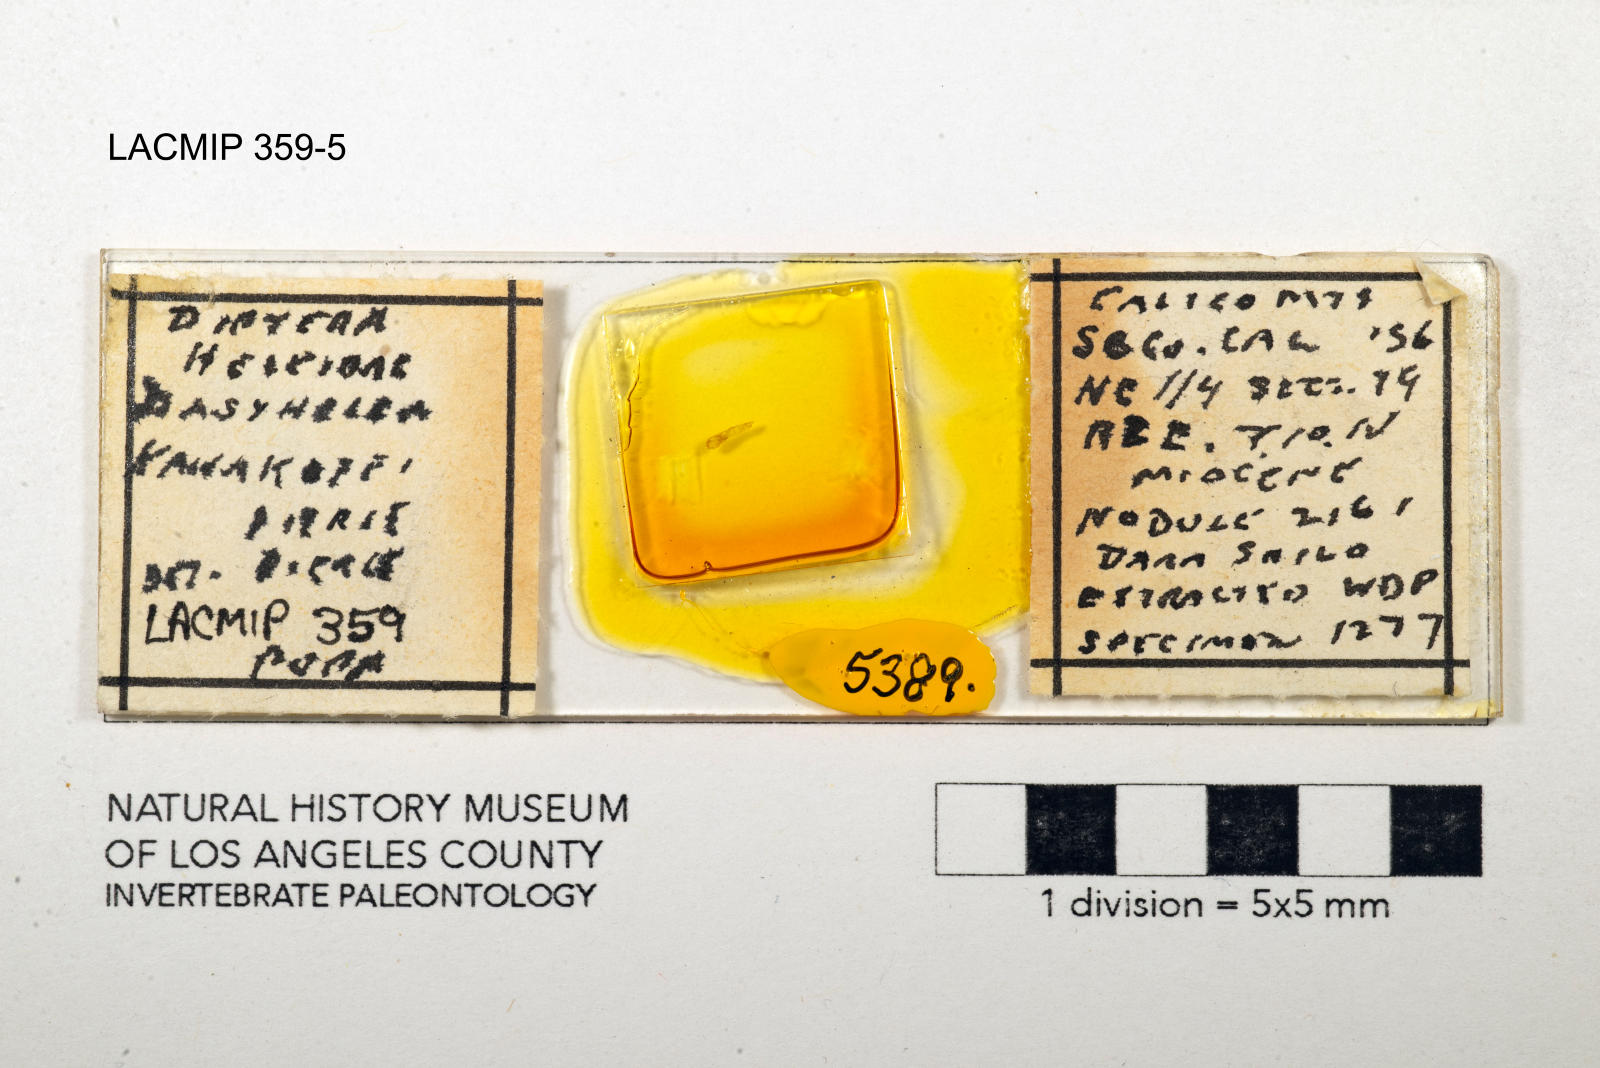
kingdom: Animalia
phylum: Arthropoda
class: Insecta
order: Diptera
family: Ceratopogonidae
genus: Dasyhelea
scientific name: Dasyhelea kanakoffi
